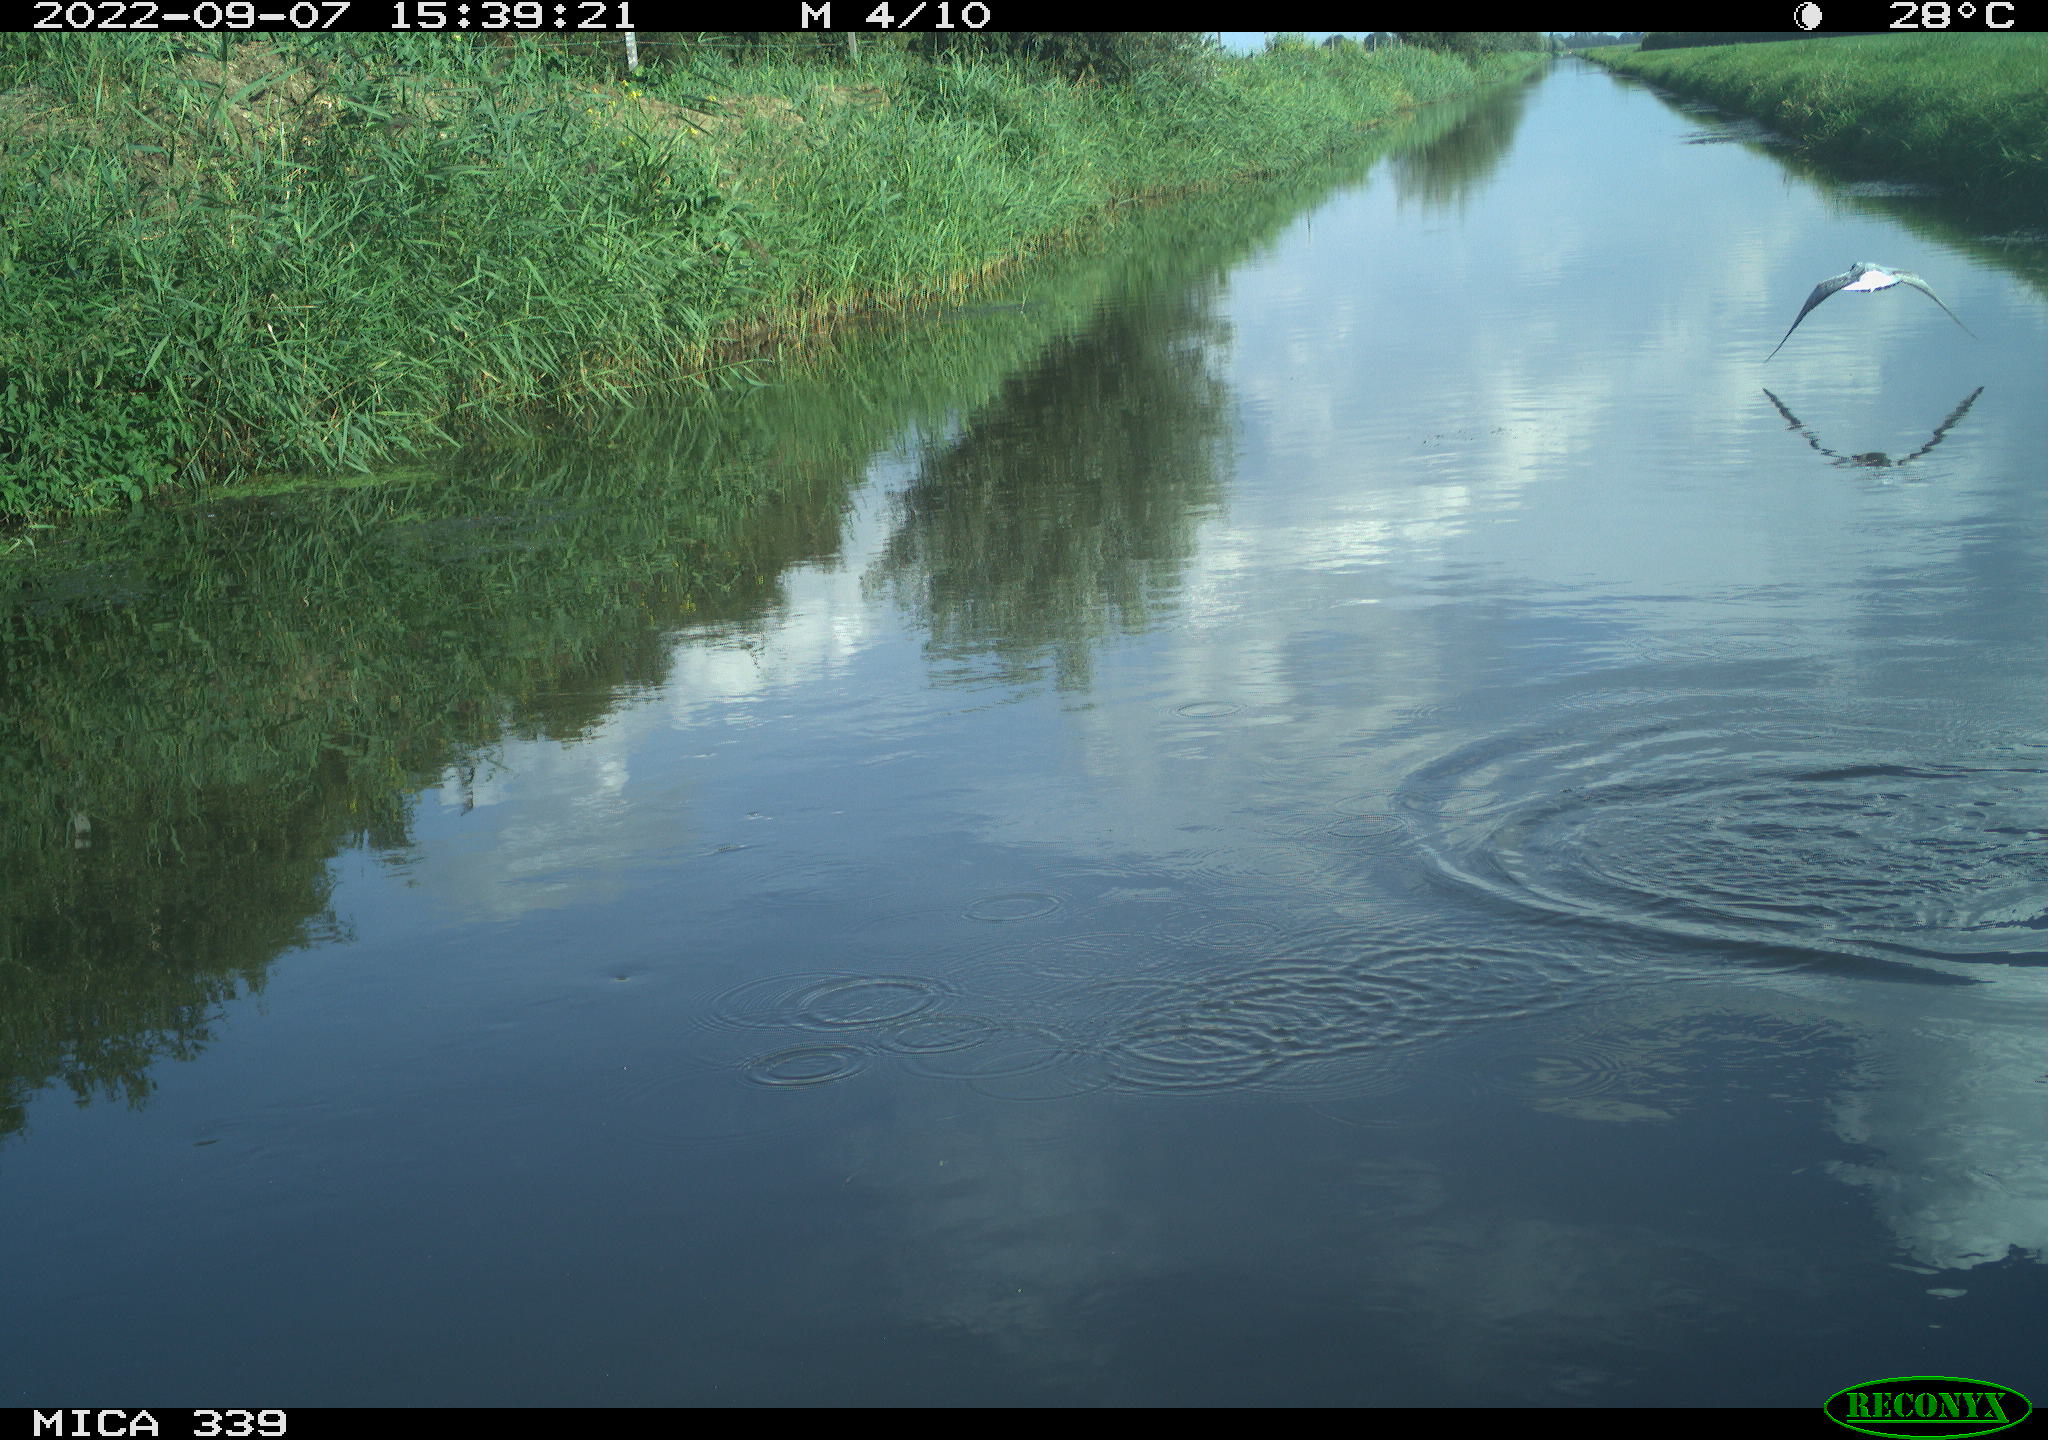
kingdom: Animalia
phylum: Chordata
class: Aves
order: Charadriiformes
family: Laridae
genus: Chroicocephalus
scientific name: Chroicocephalus ridibundus
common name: Black-headed gull
